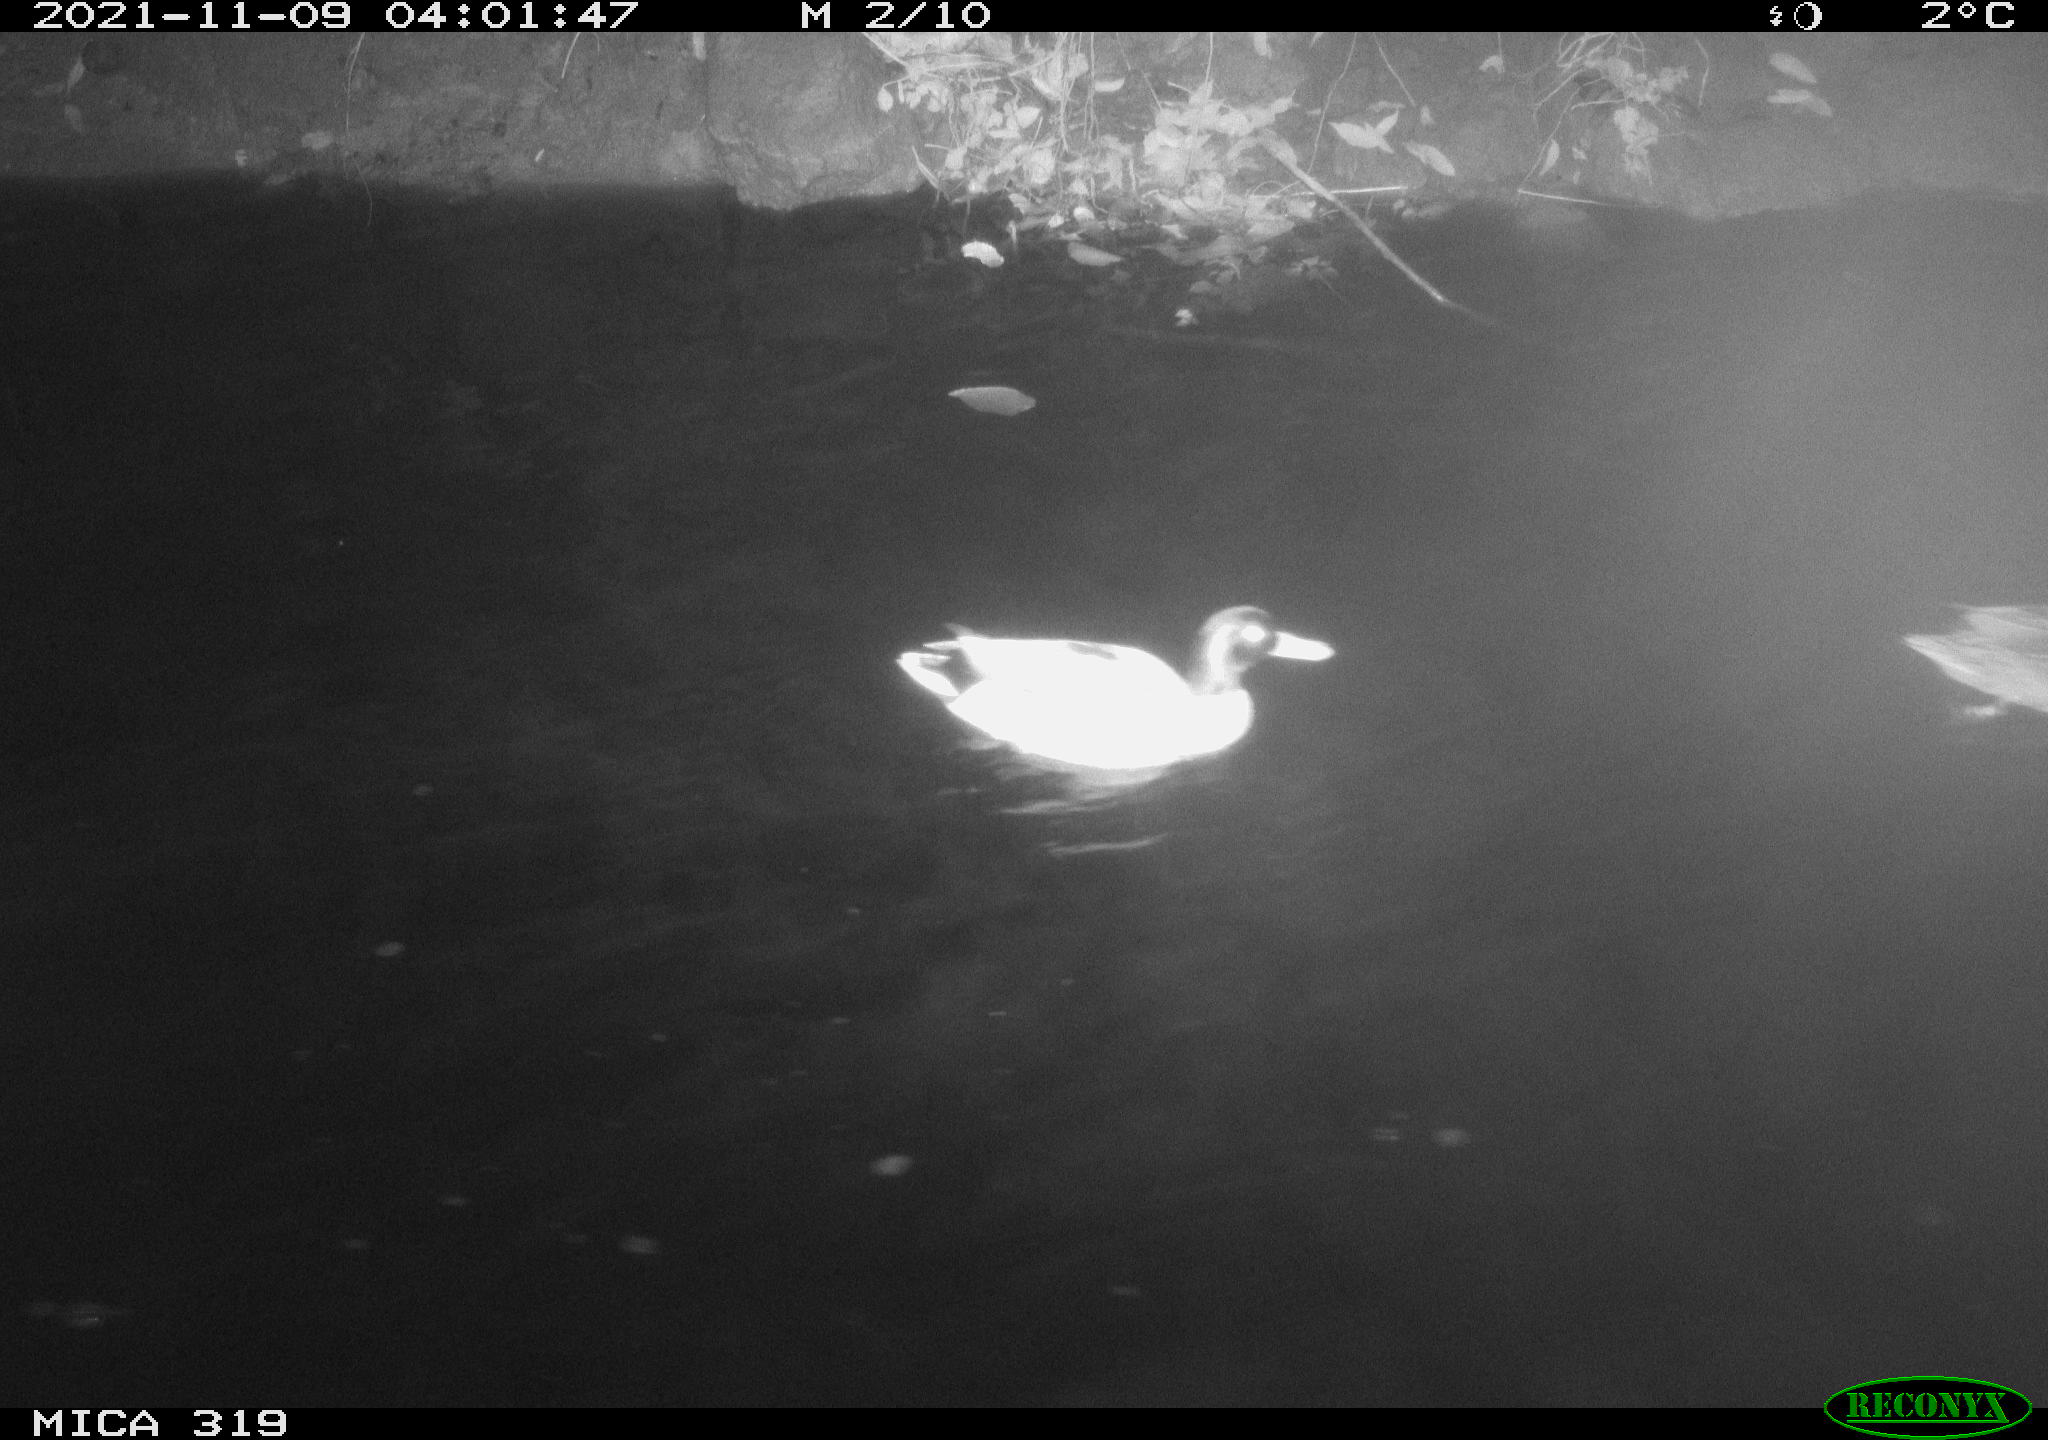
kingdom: Animalia
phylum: Chordata
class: Aves
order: Anseriformes
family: Anatidae
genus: Anas
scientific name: Anas platyrhynchos
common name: Mallard
